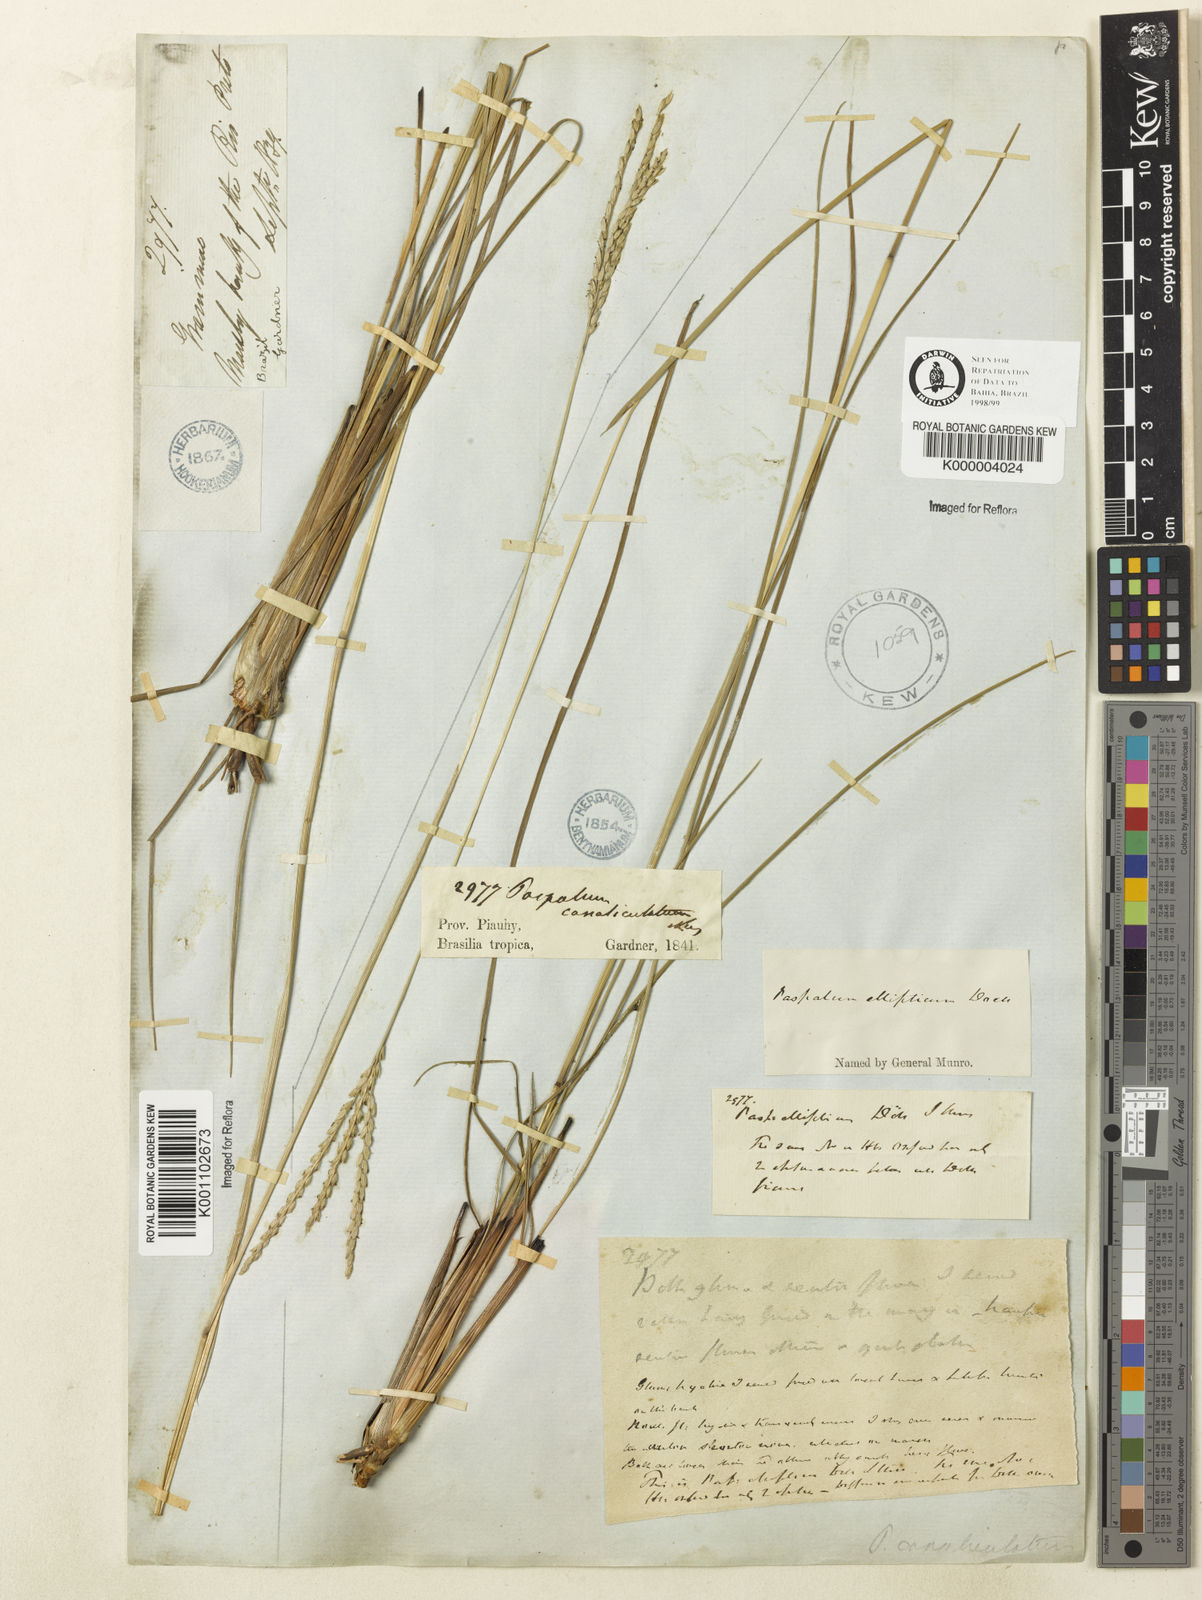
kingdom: Plantae
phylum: Tracheophyta
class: Liliopsida
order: Poales
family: Poaceae
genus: Paspalum
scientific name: Paspalum
